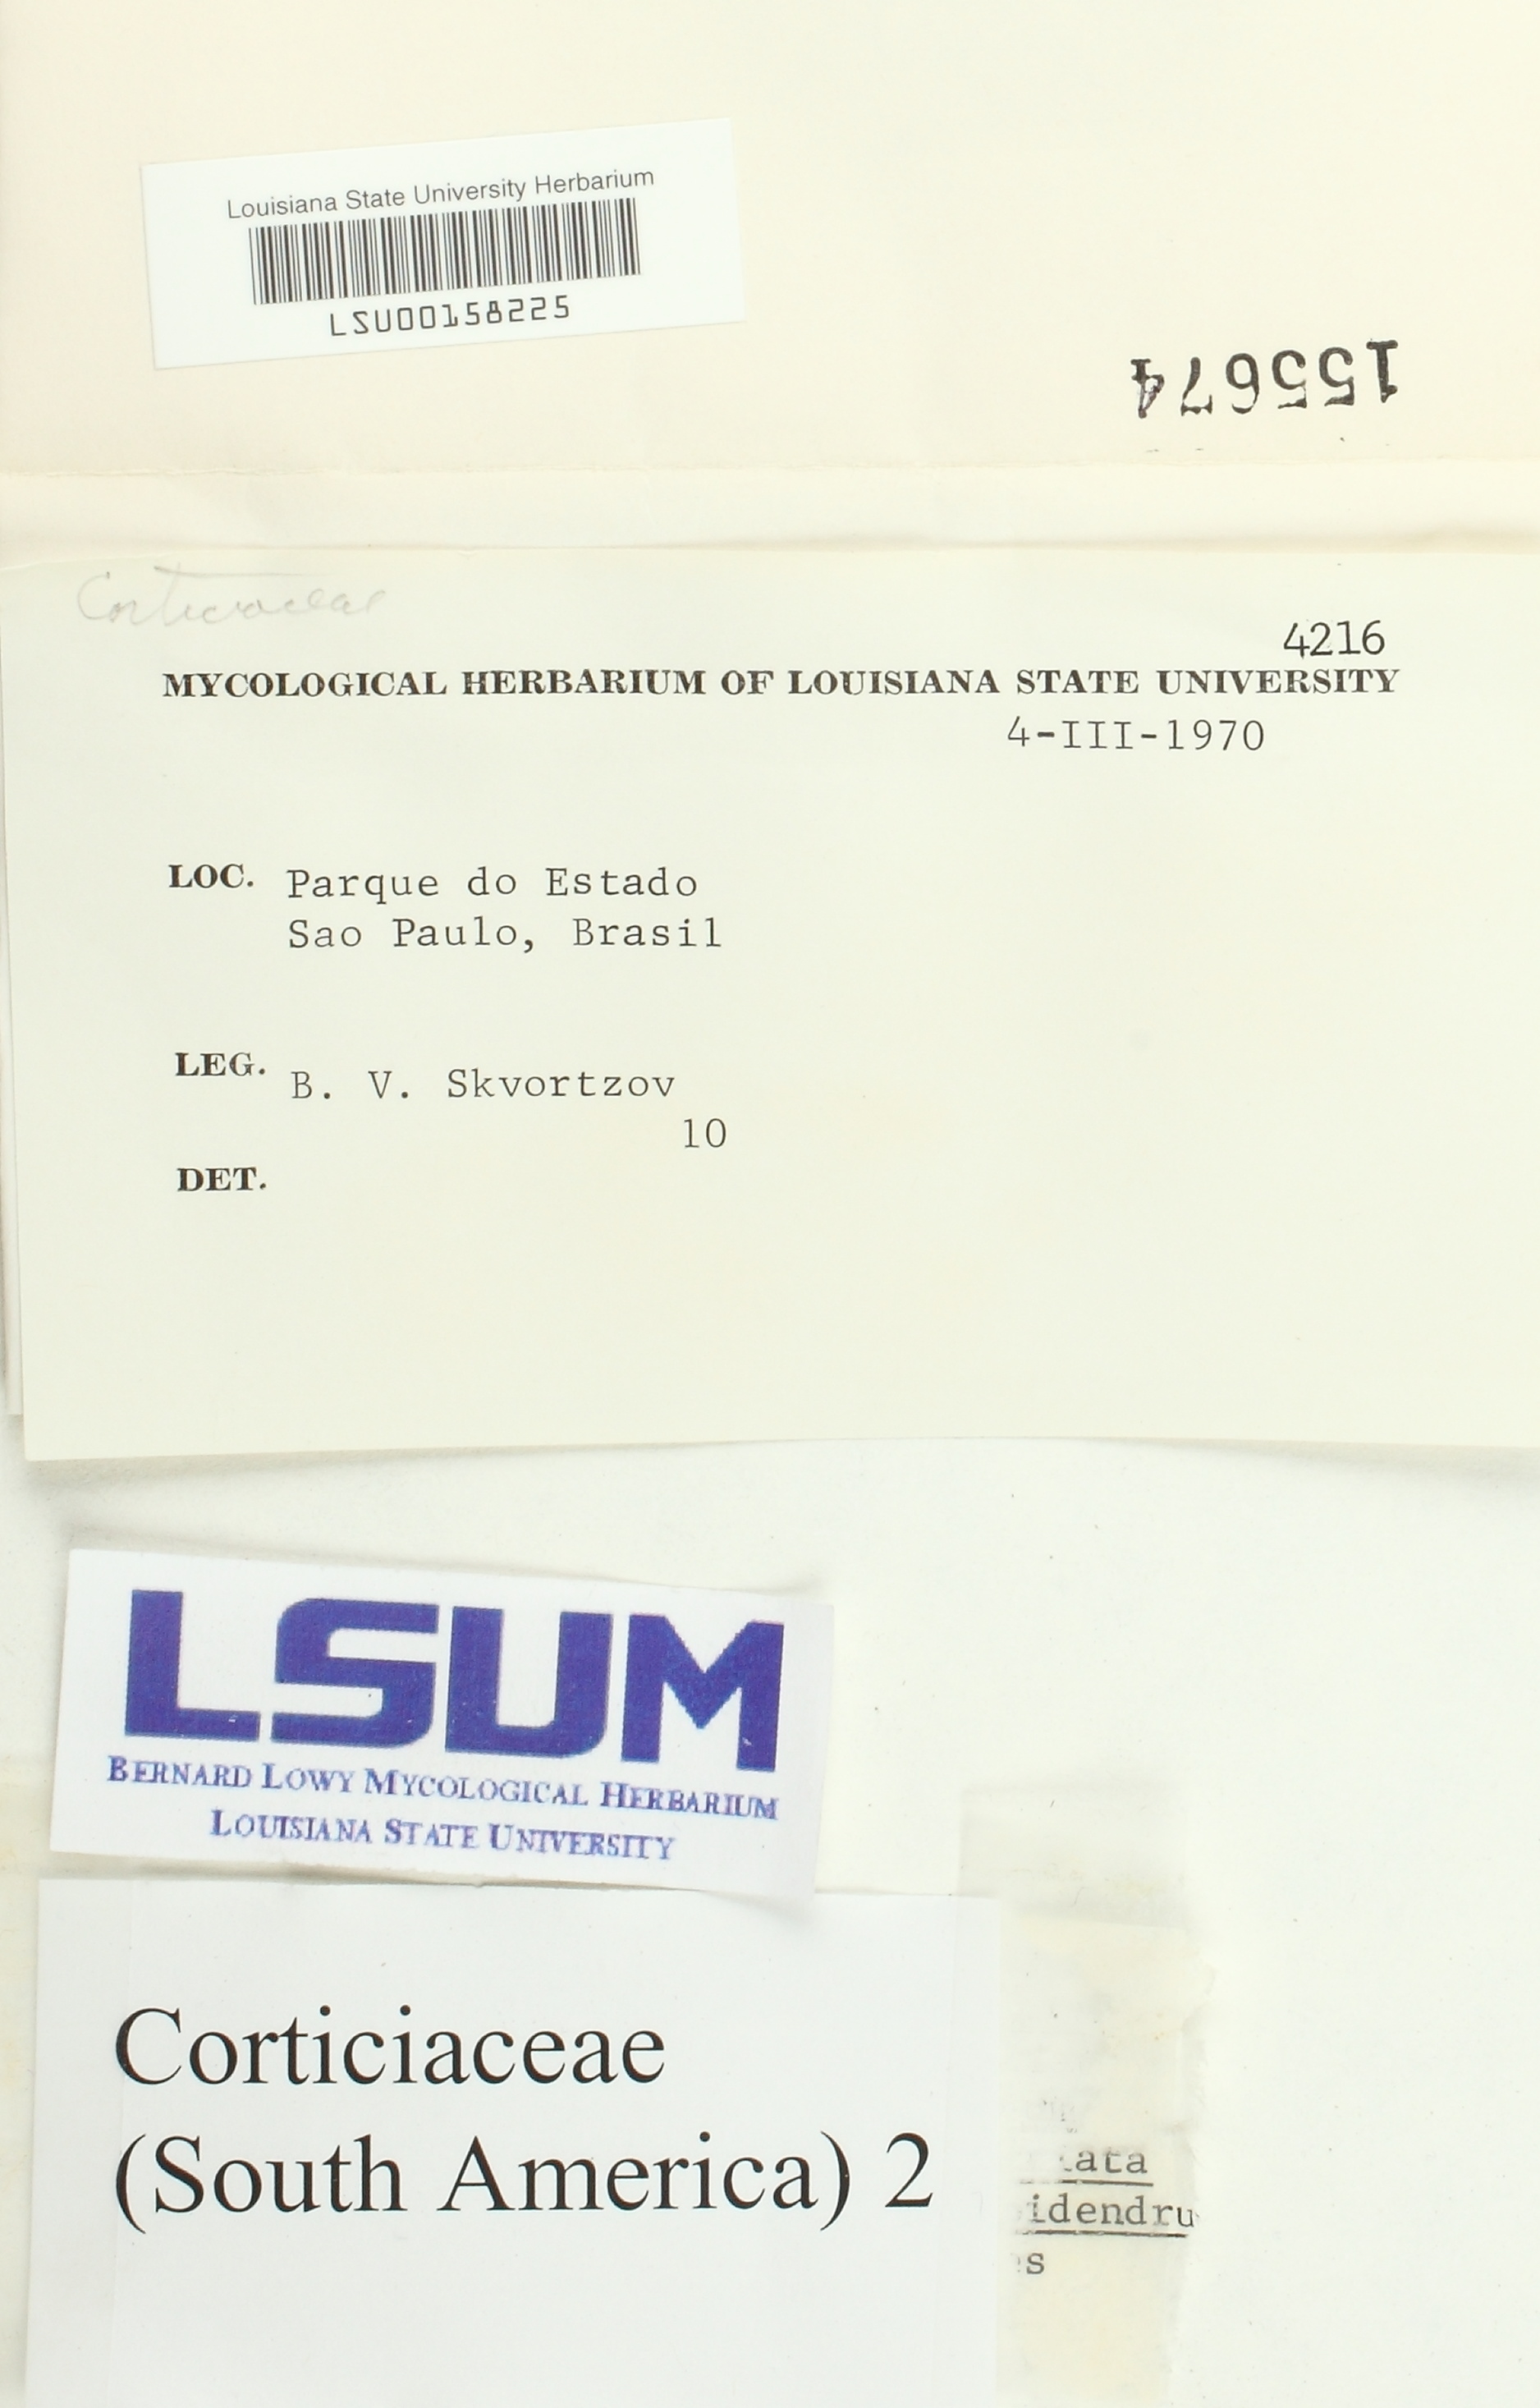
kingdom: Fungi
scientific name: Fungi
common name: Fungi
